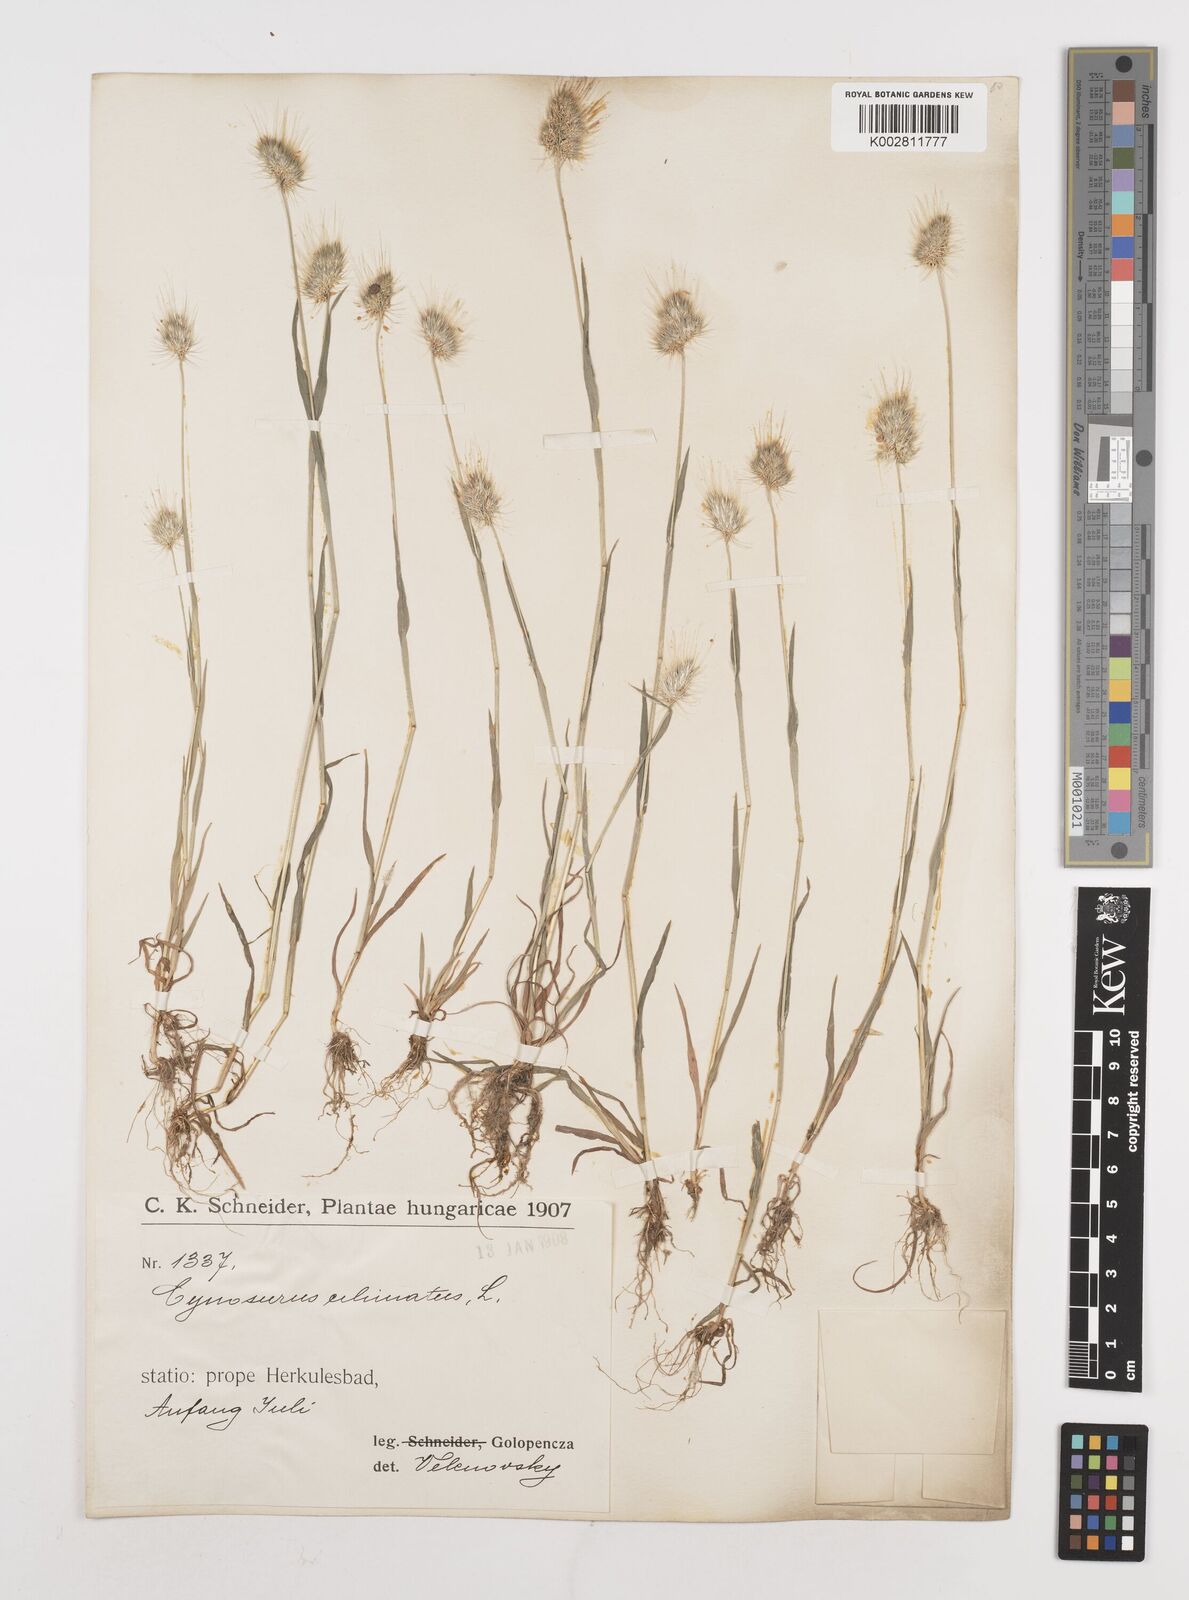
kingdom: Plantae
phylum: Tracheophyta
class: Liliopsida
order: Poales
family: Poaceae
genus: Cynosurus
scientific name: Cynosurus echinatus
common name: Rough dog's-tail
